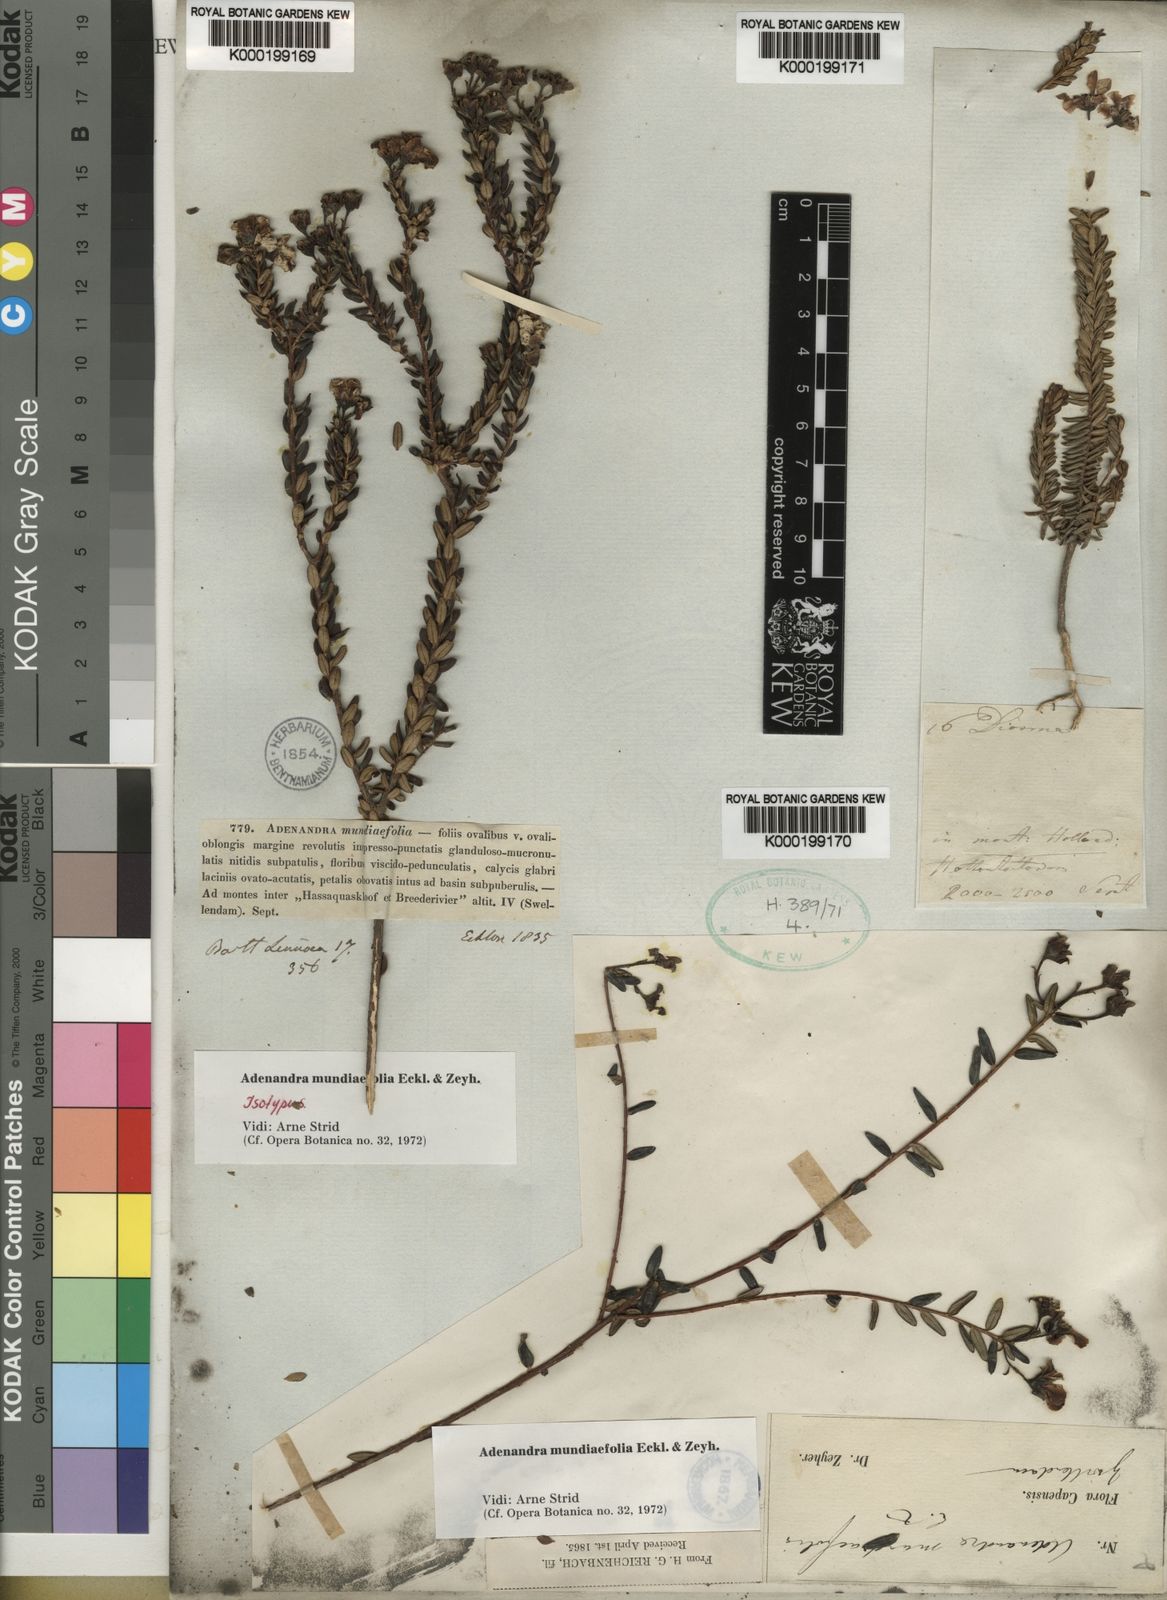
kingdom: Plantae
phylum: Tracheophyta
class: Magnoliopsida
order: Sapindales
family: Rutaceae
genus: Adenandra
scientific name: Adenandra
